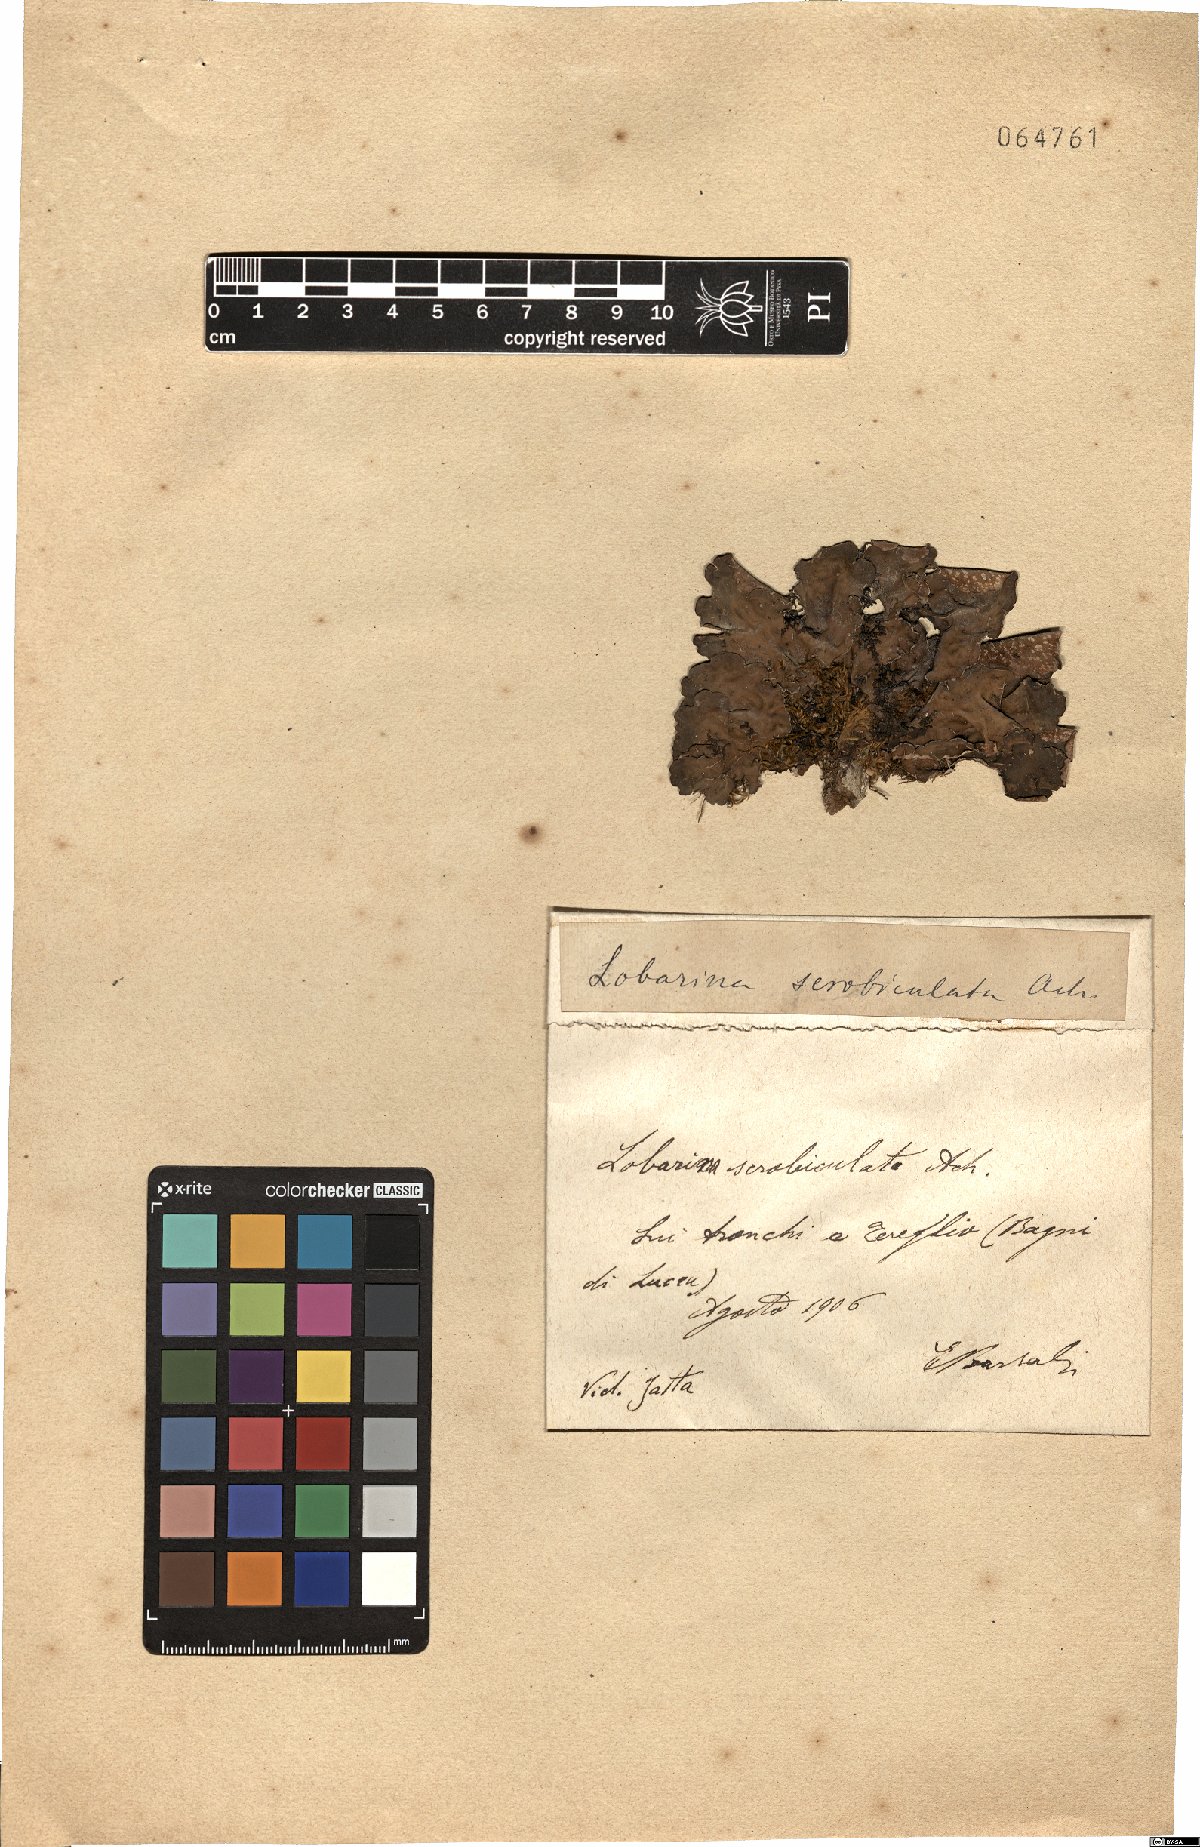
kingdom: Fungi
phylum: Ascomycota
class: Lecanoromycetes
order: Peltigerales
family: Lobariaceae
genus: Lobarina
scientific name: Lobarina scrobiculata
